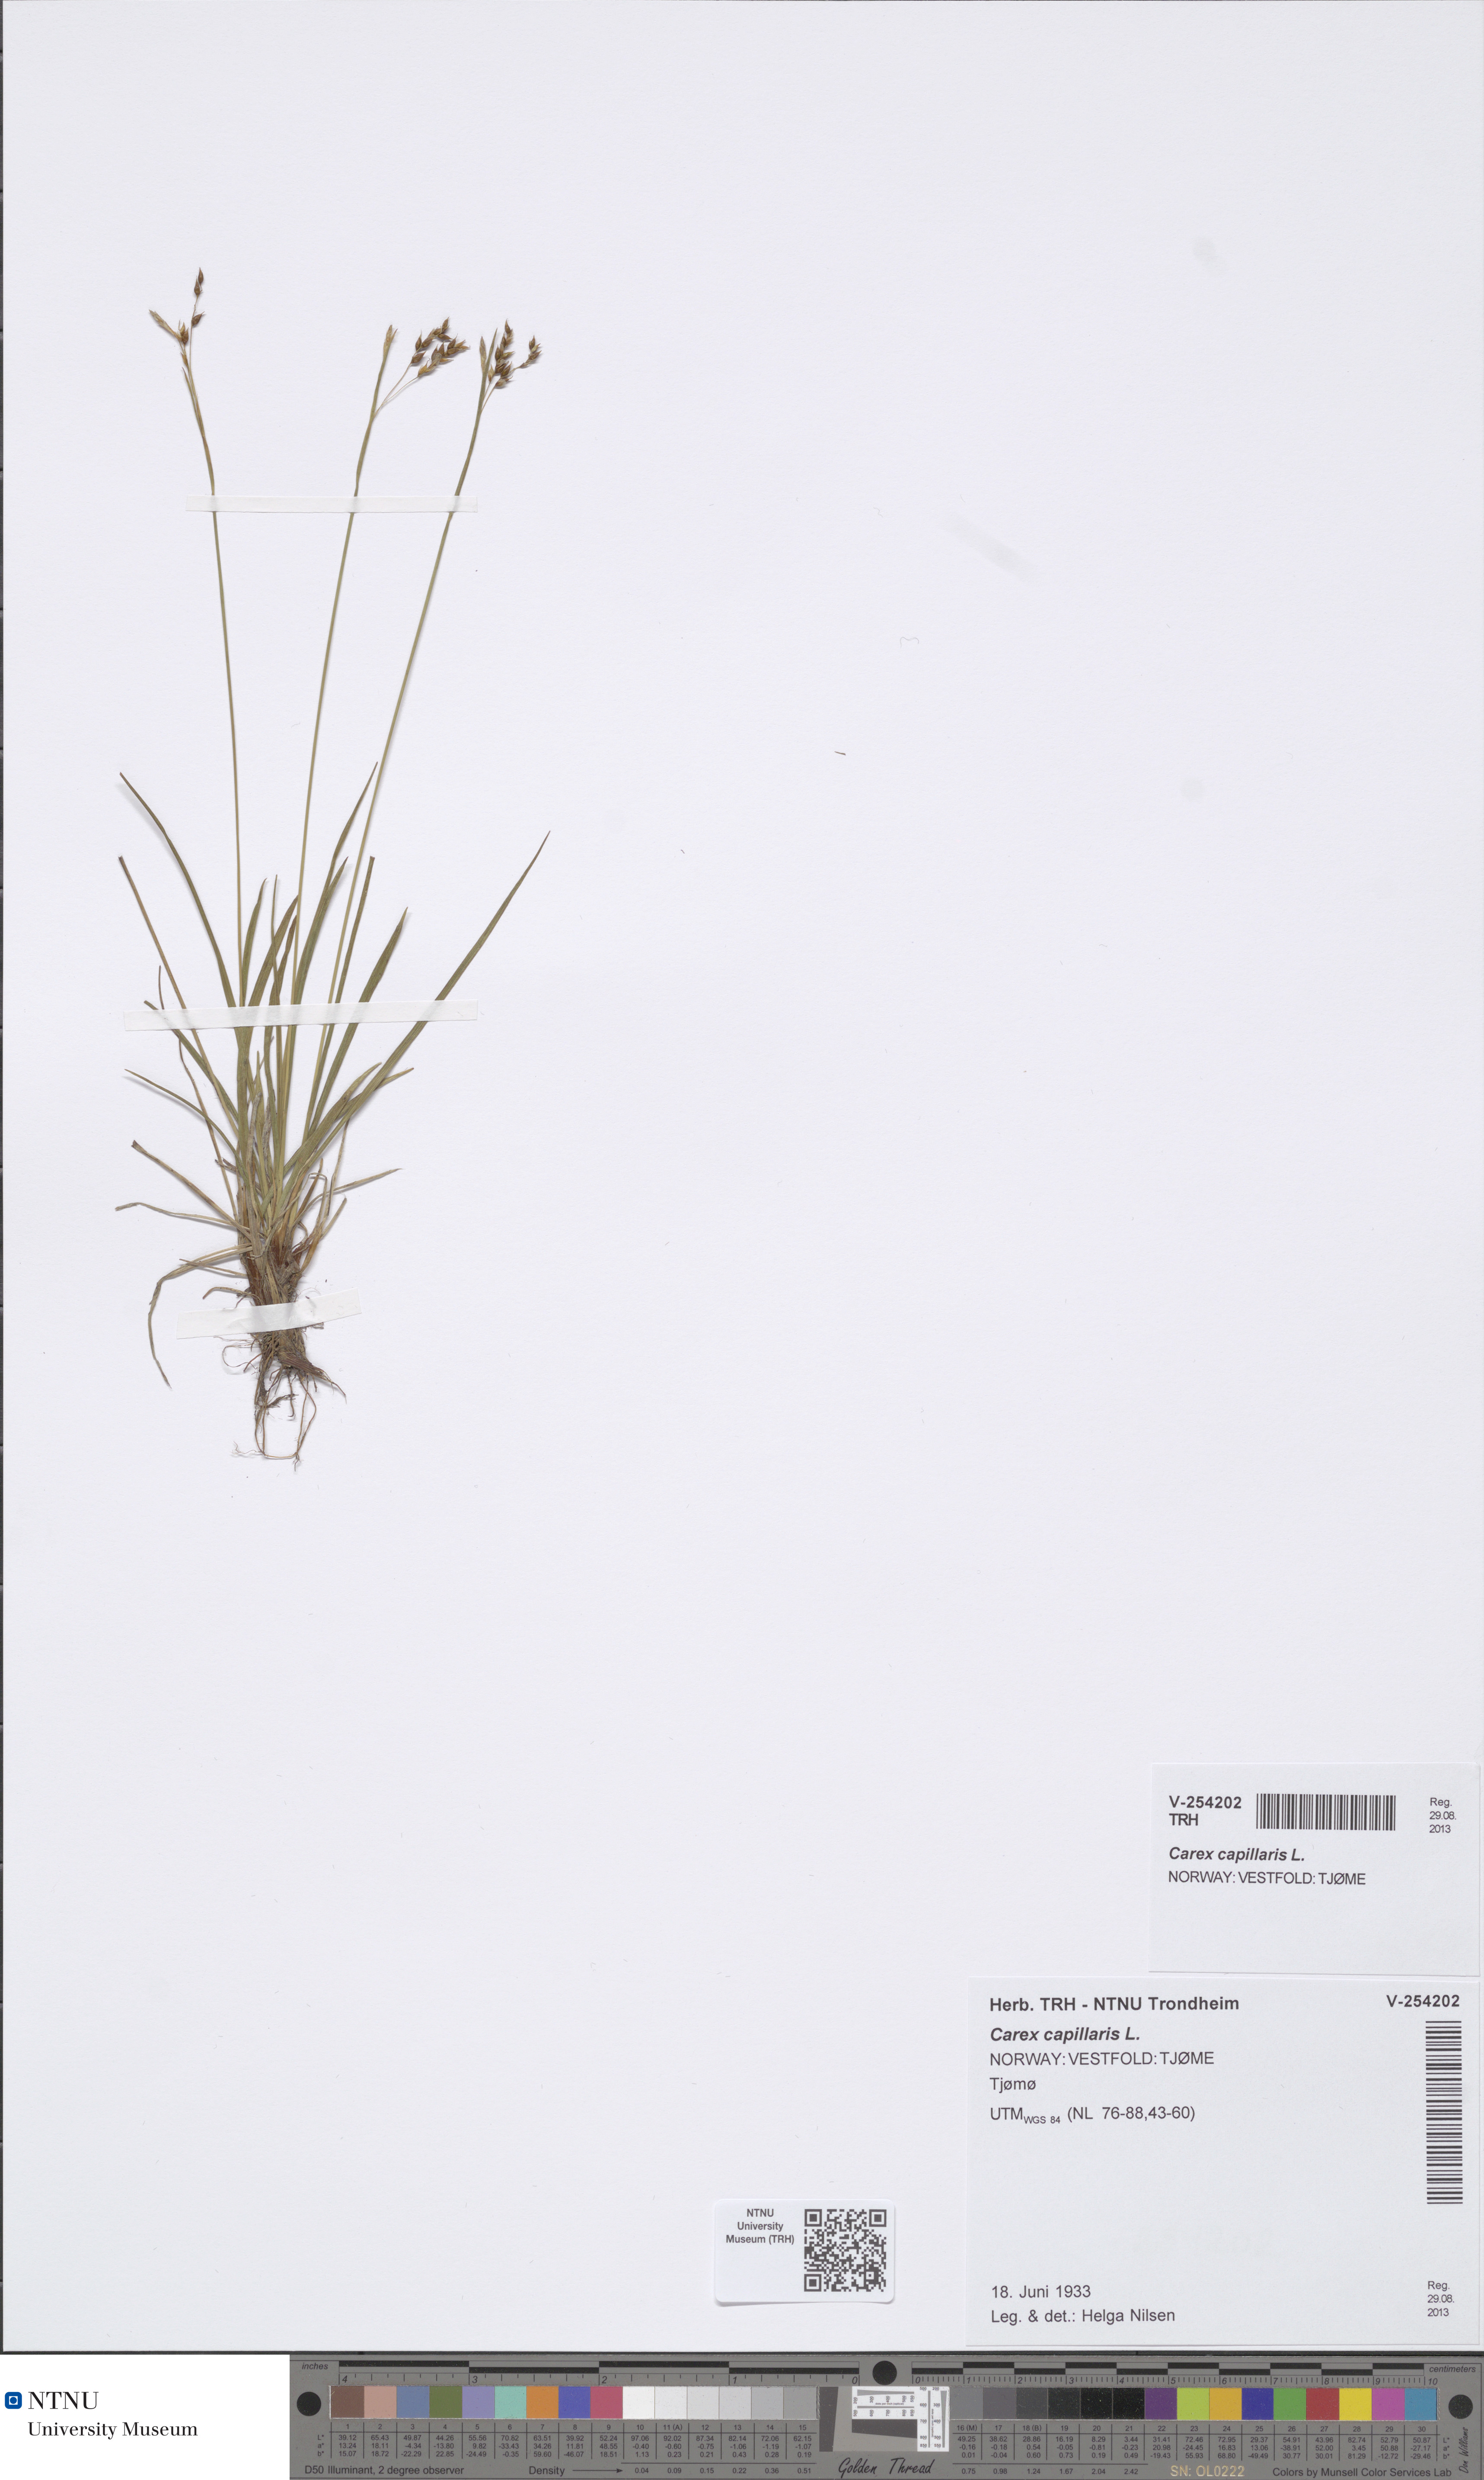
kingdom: Plantae
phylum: Tracheophyta
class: Liliopsida
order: Poales
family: Cyperaceae
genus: Carex
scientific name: Carex capillaris
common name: Hair sedge
